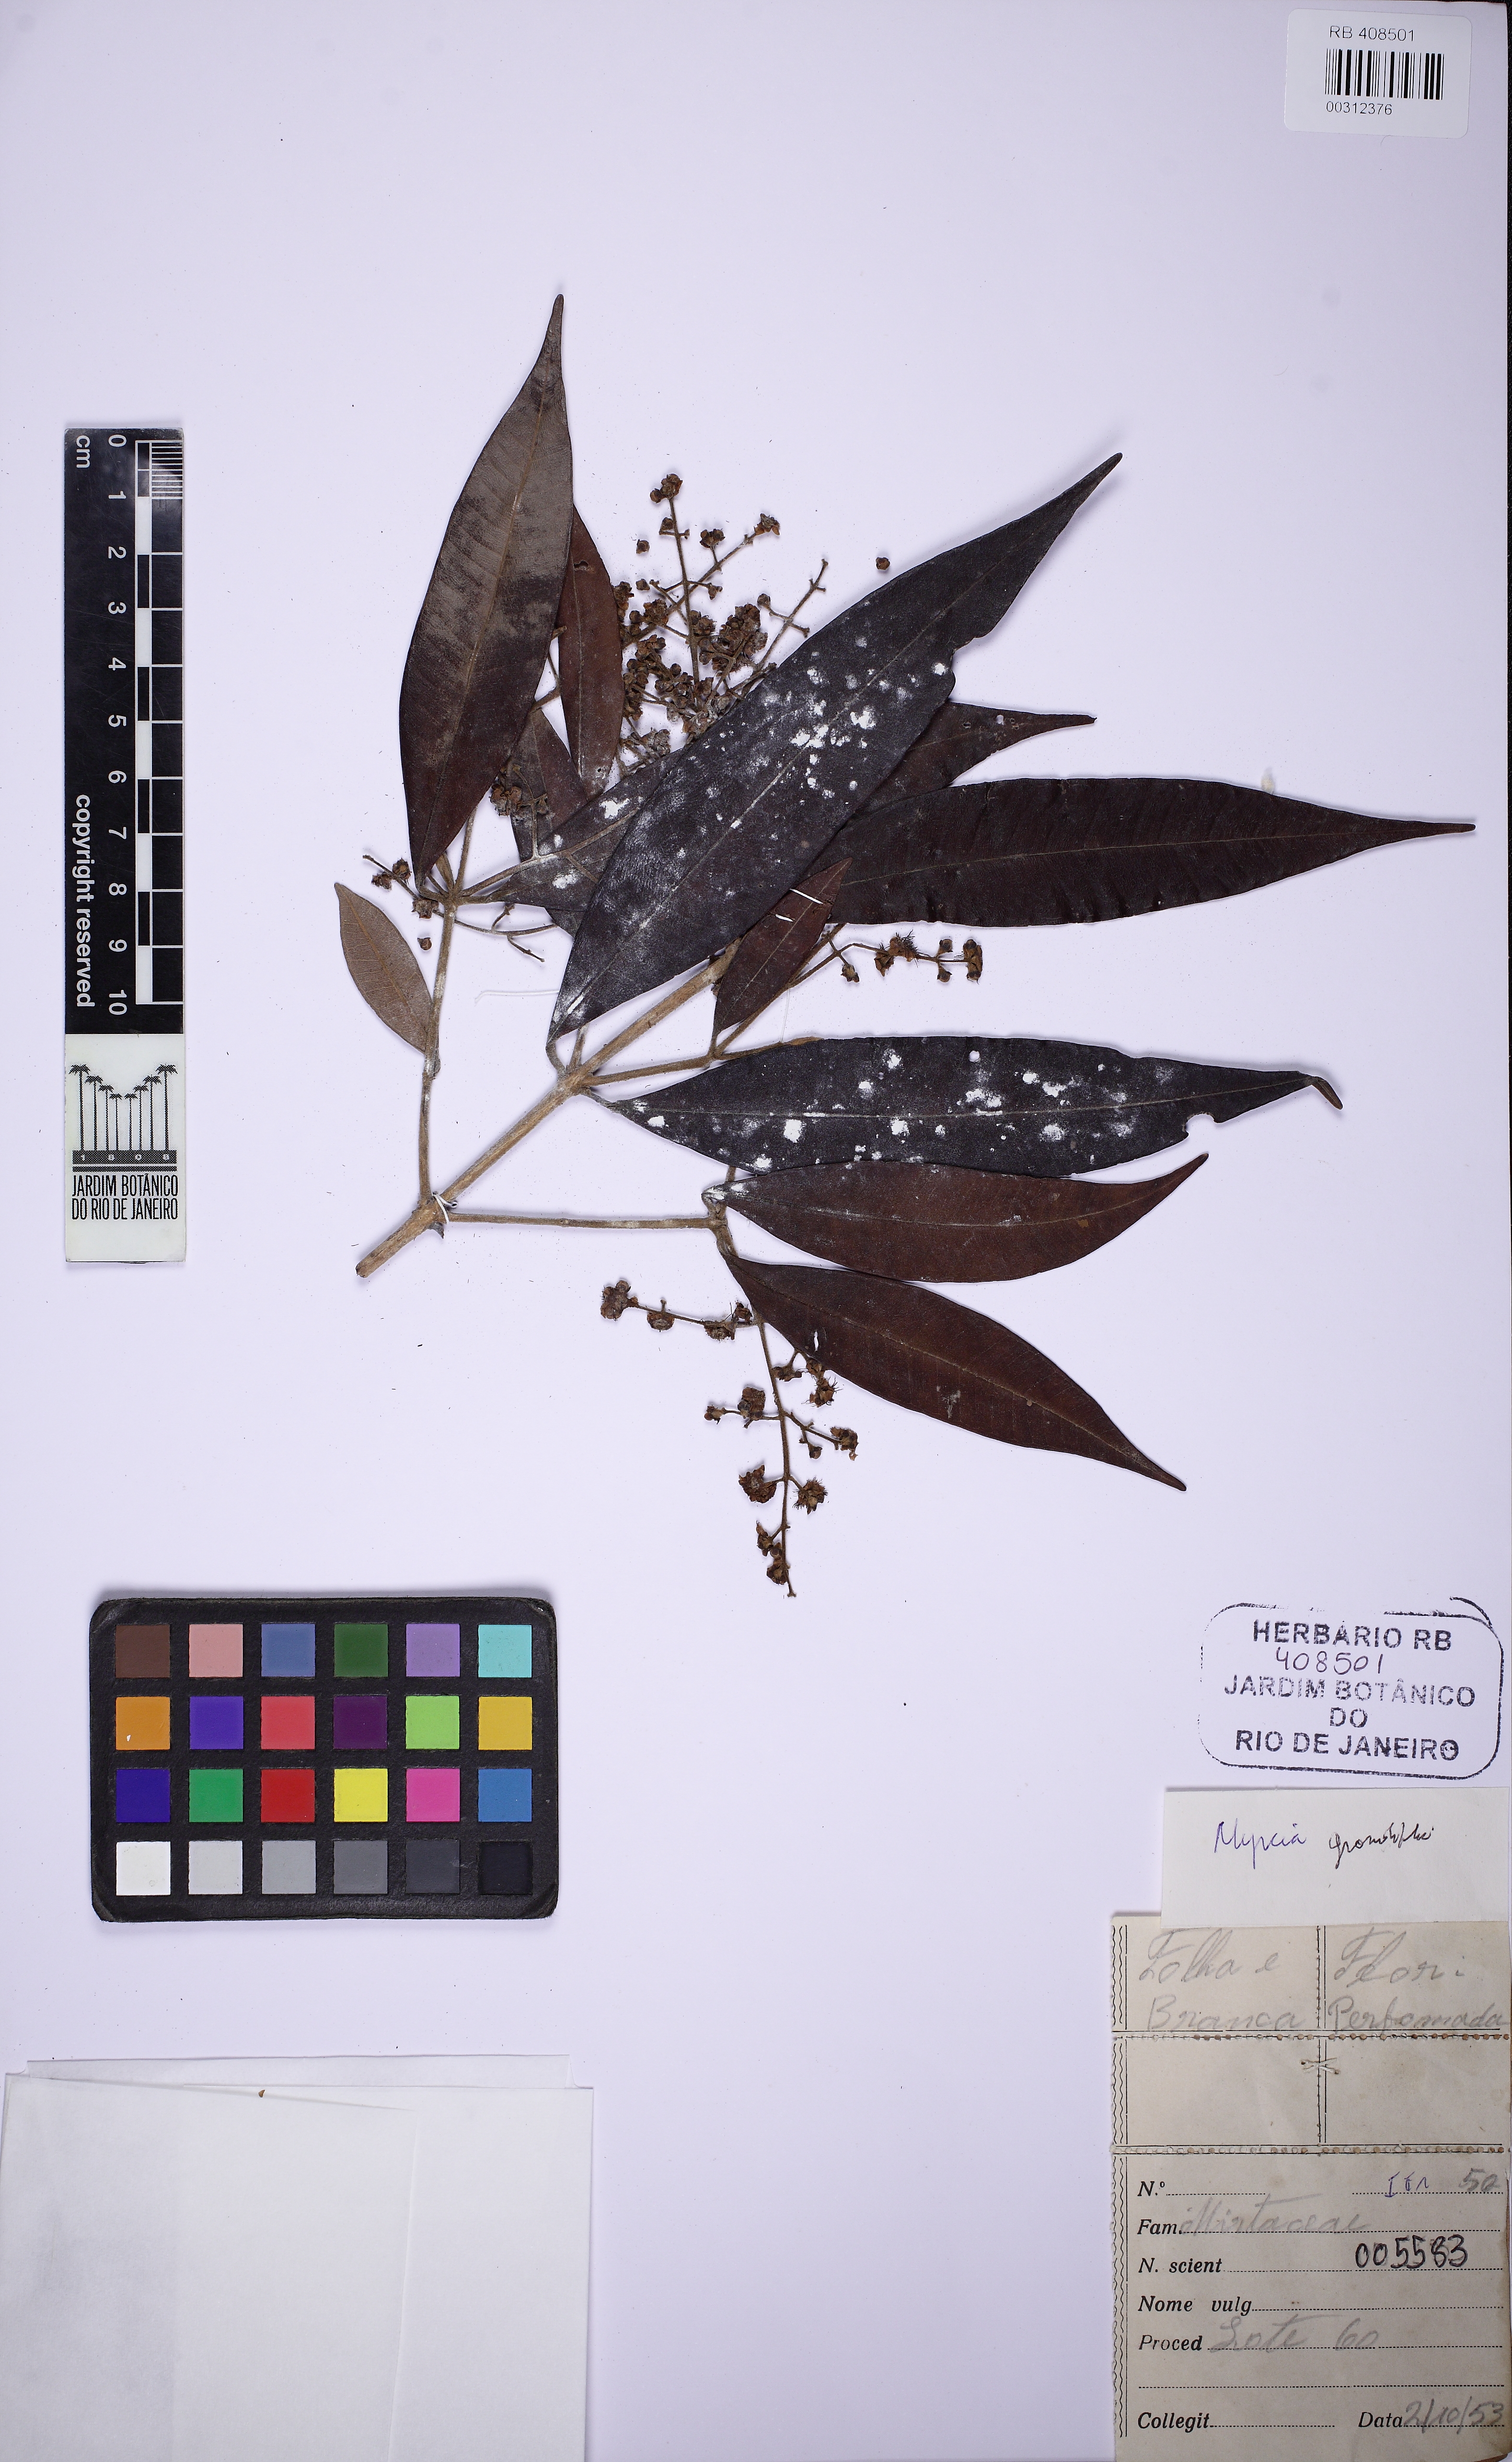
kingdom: Plantae
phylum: Tracheophyta
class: Magnoliopsida
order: Myrtales
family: Myrtaceae
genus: Myrcia
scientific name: Myrcia splendens
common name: Surinam cherry
